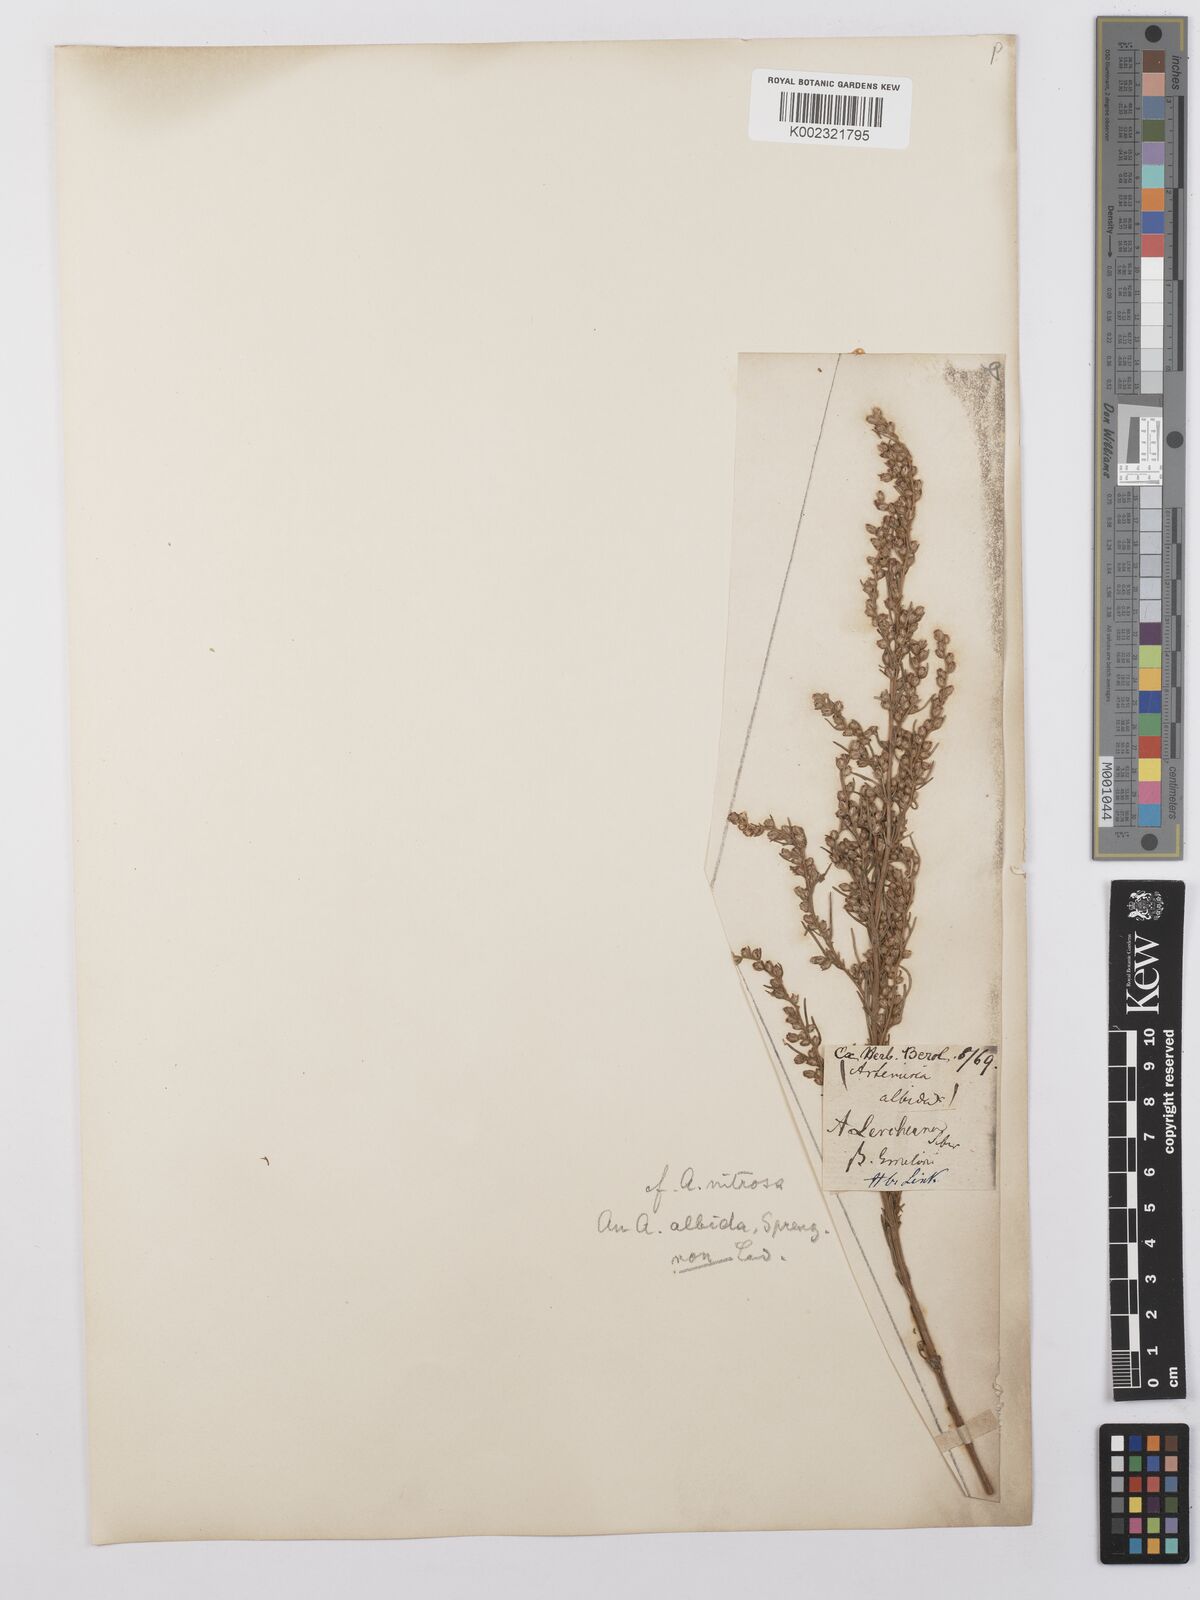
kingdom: Plantae
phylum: Tracheophyta
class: Magnoliopsida
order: Asterales
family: Asteraceae
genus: Artemisia
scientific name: Artemisia nitrosa
